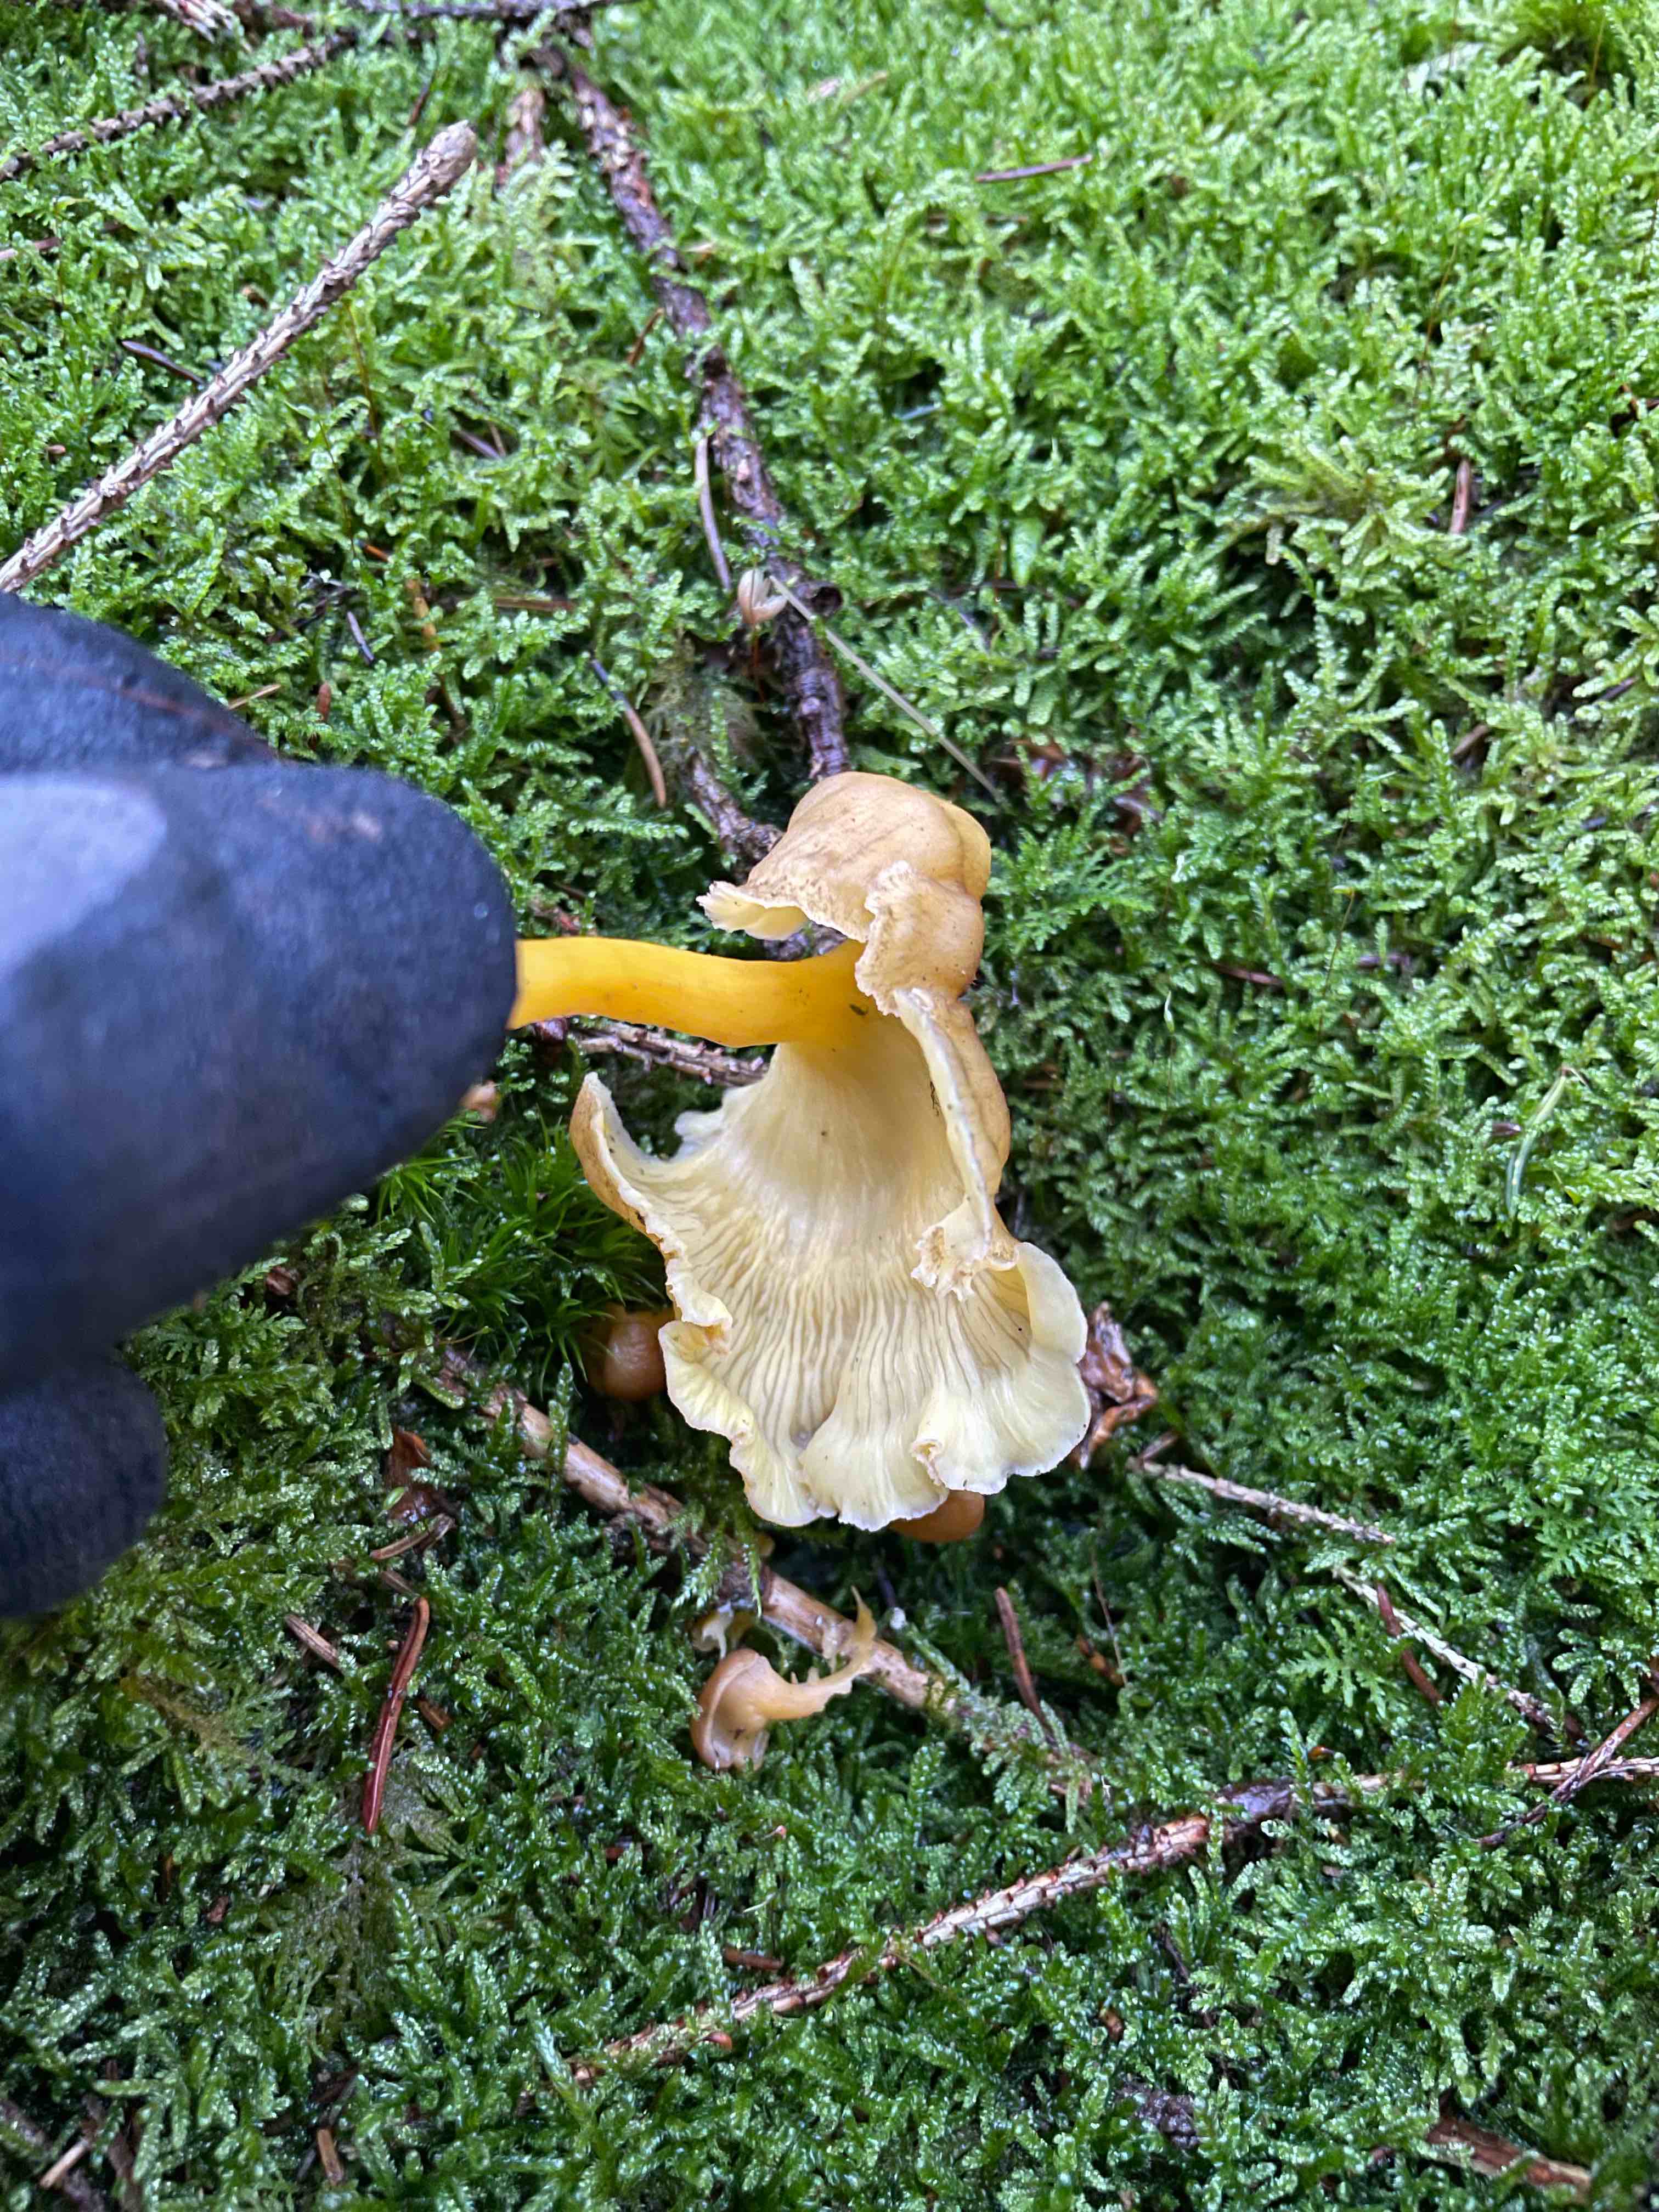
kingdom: Fungi
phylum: Basidiomycota
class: Agaricomycetes
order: Cantharellales
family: Hydnaceae
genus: Craterellus
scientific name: Craterellus tubaeformis
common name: tragt-kantarel
